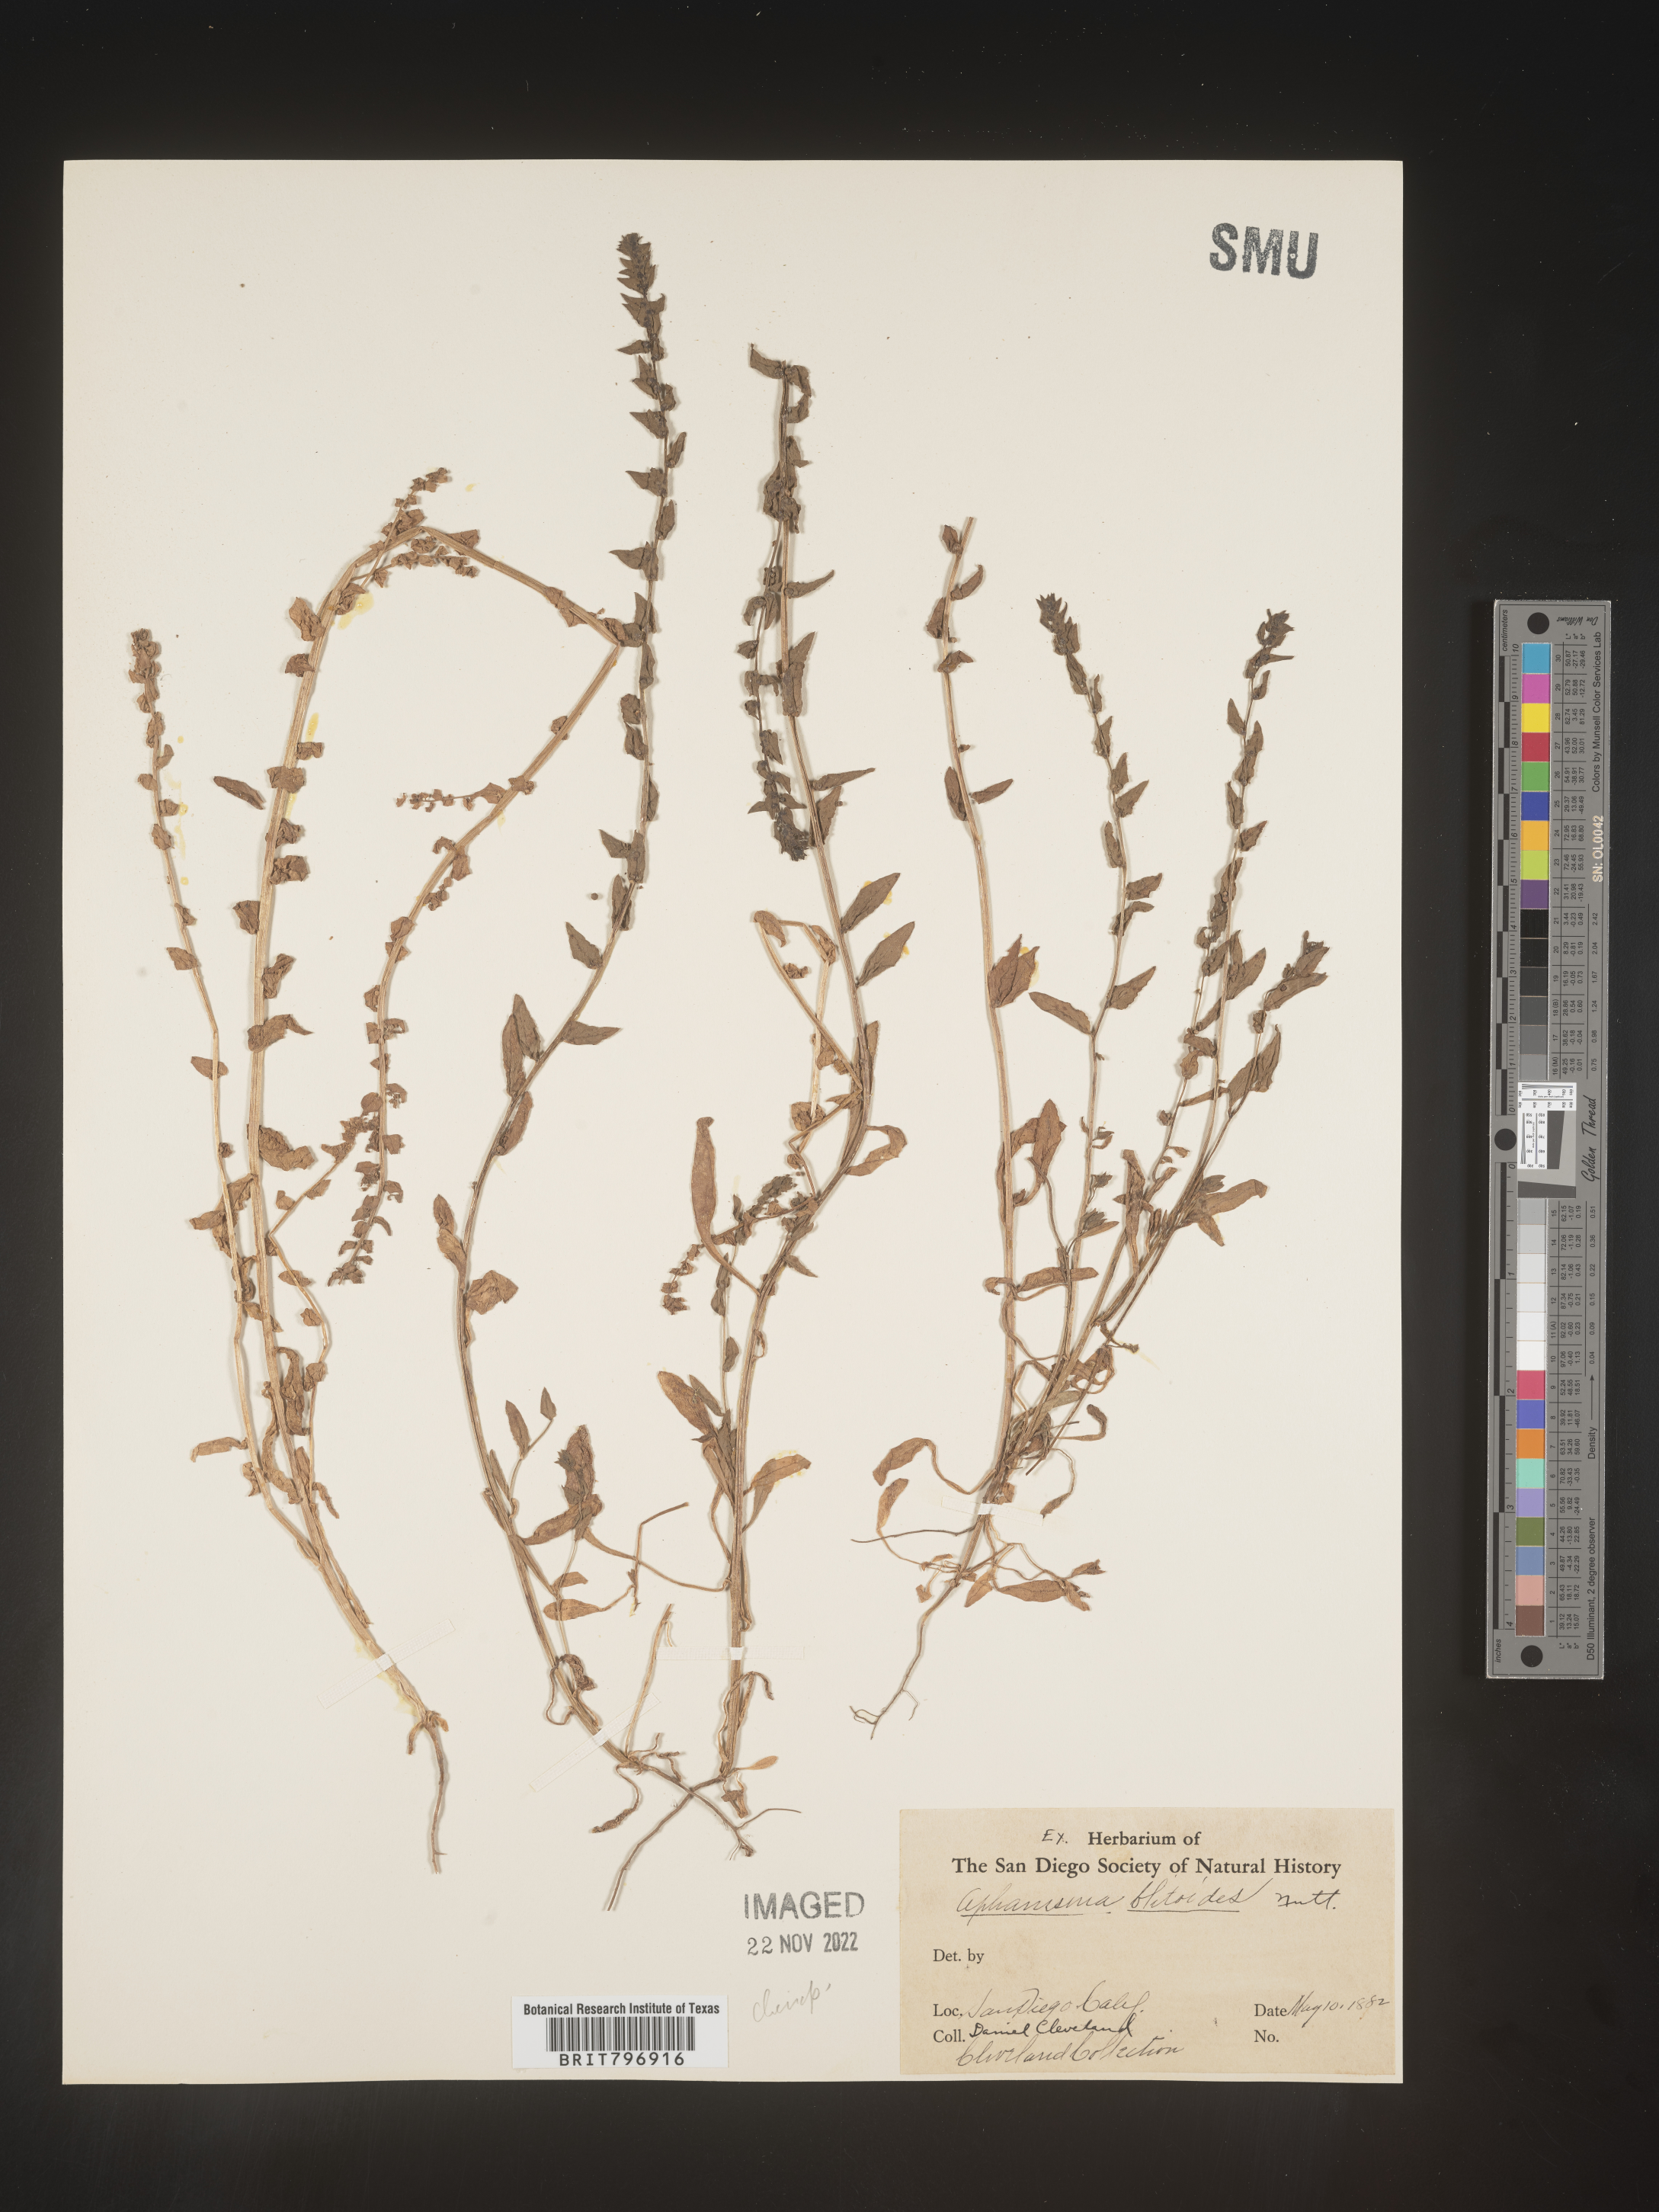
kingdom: Plantae
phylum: Tracheophyta
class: Magnoliopsida
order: Caryophyllales
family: Amaranthaceae
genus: Aphanisma
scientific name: Aphanisma
